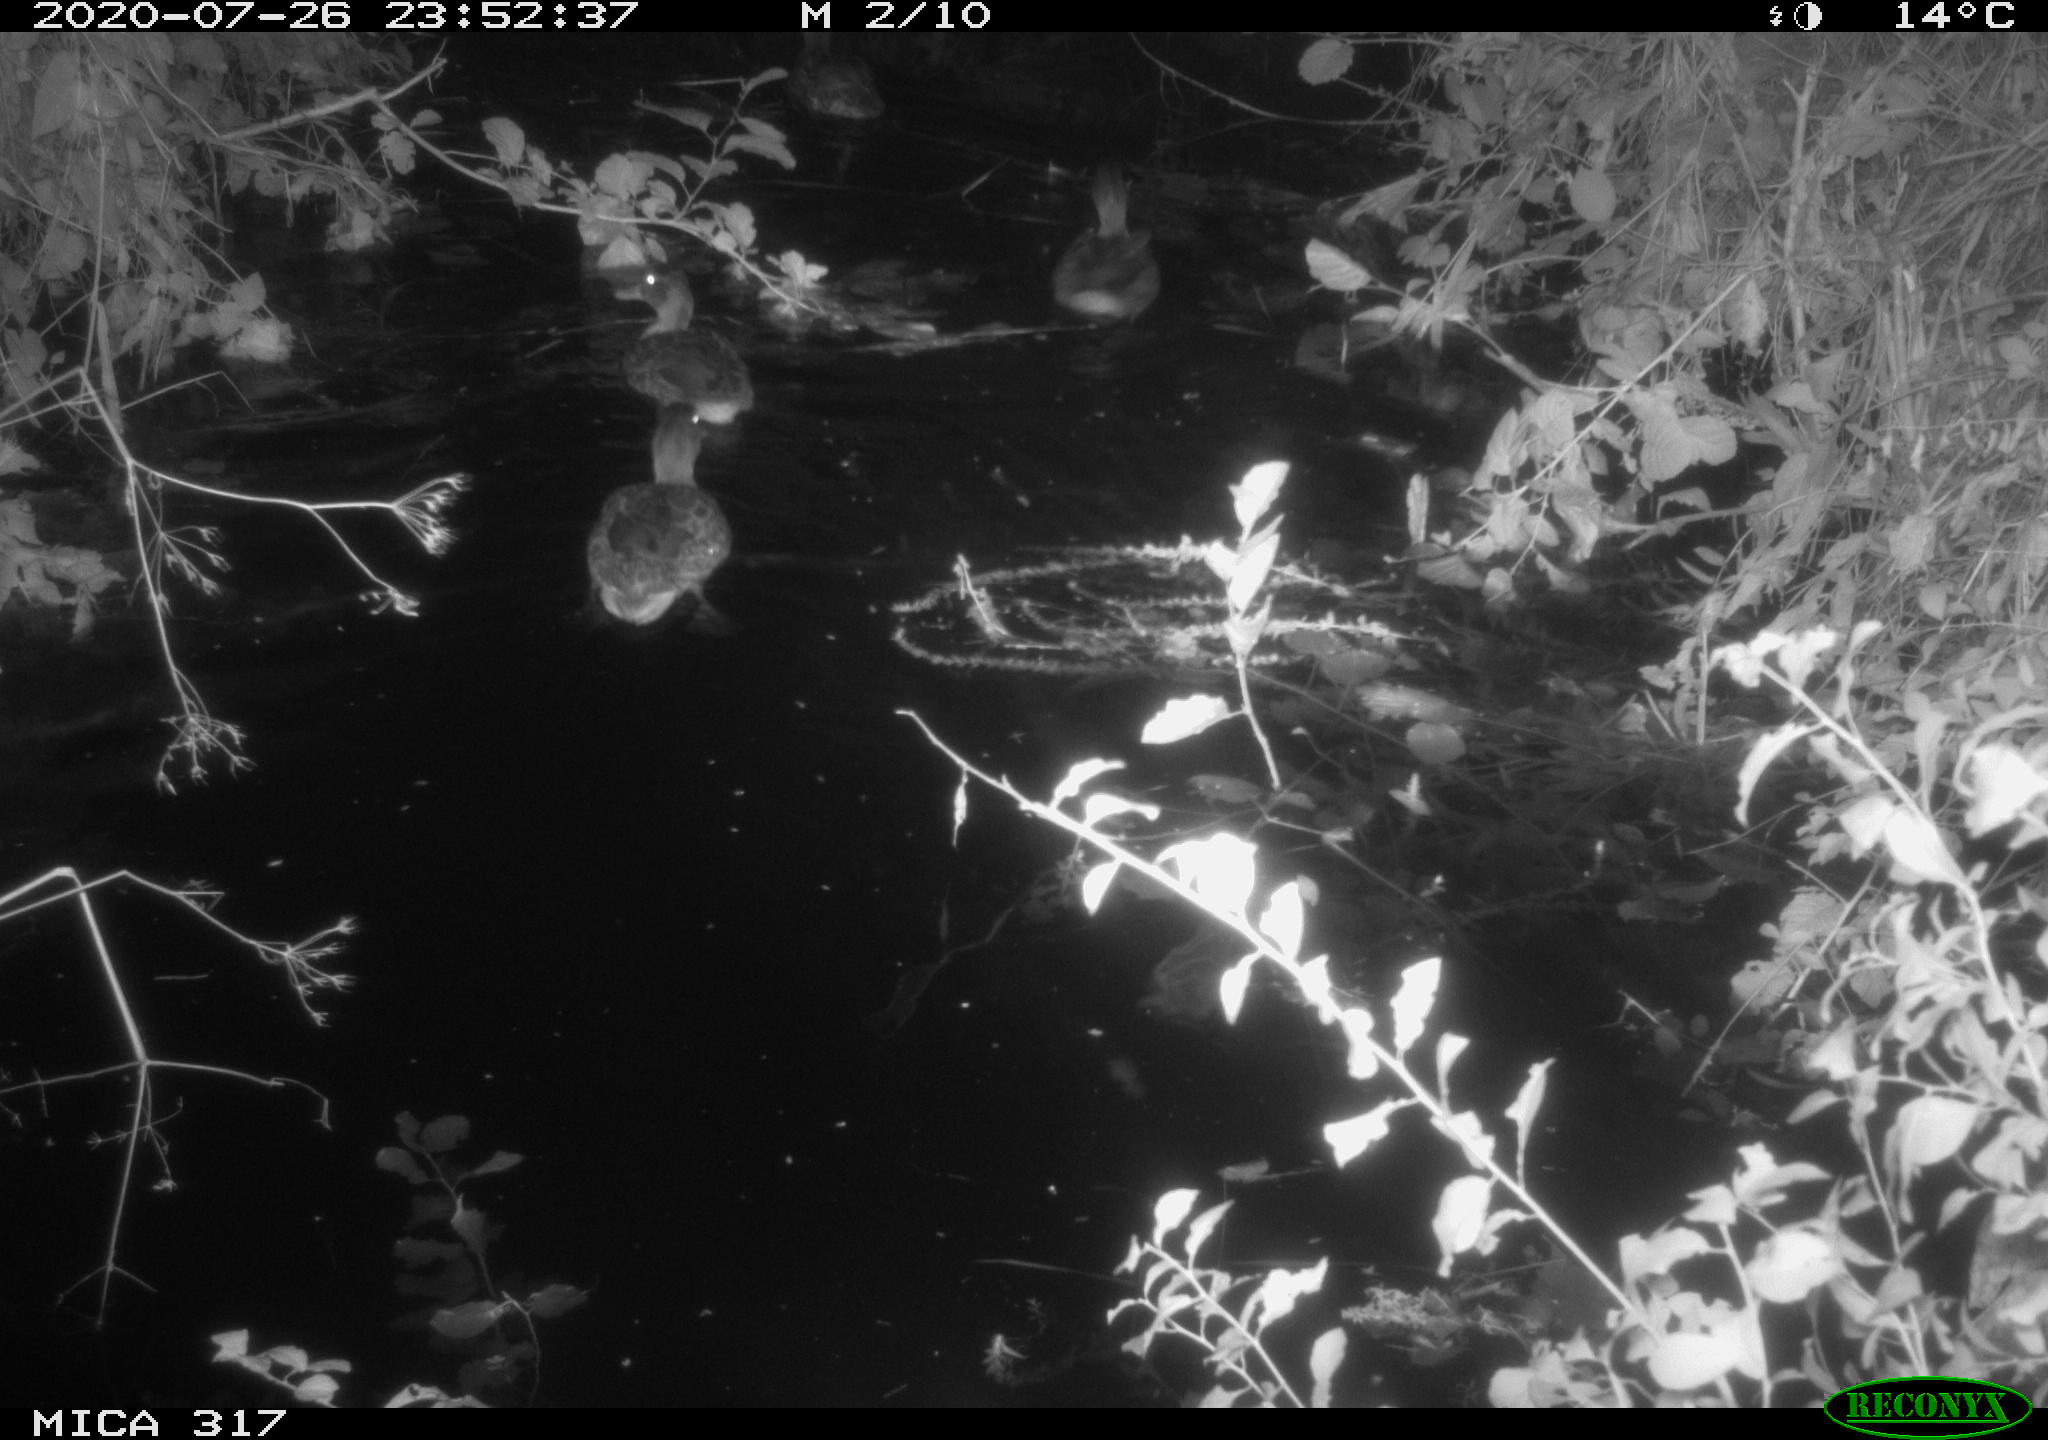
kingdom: Animalia
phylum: Chordata
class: Aves
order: Anseriformes
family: Anatidae
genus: Anas
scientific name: Anas platyrhynchos
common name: Mallard
